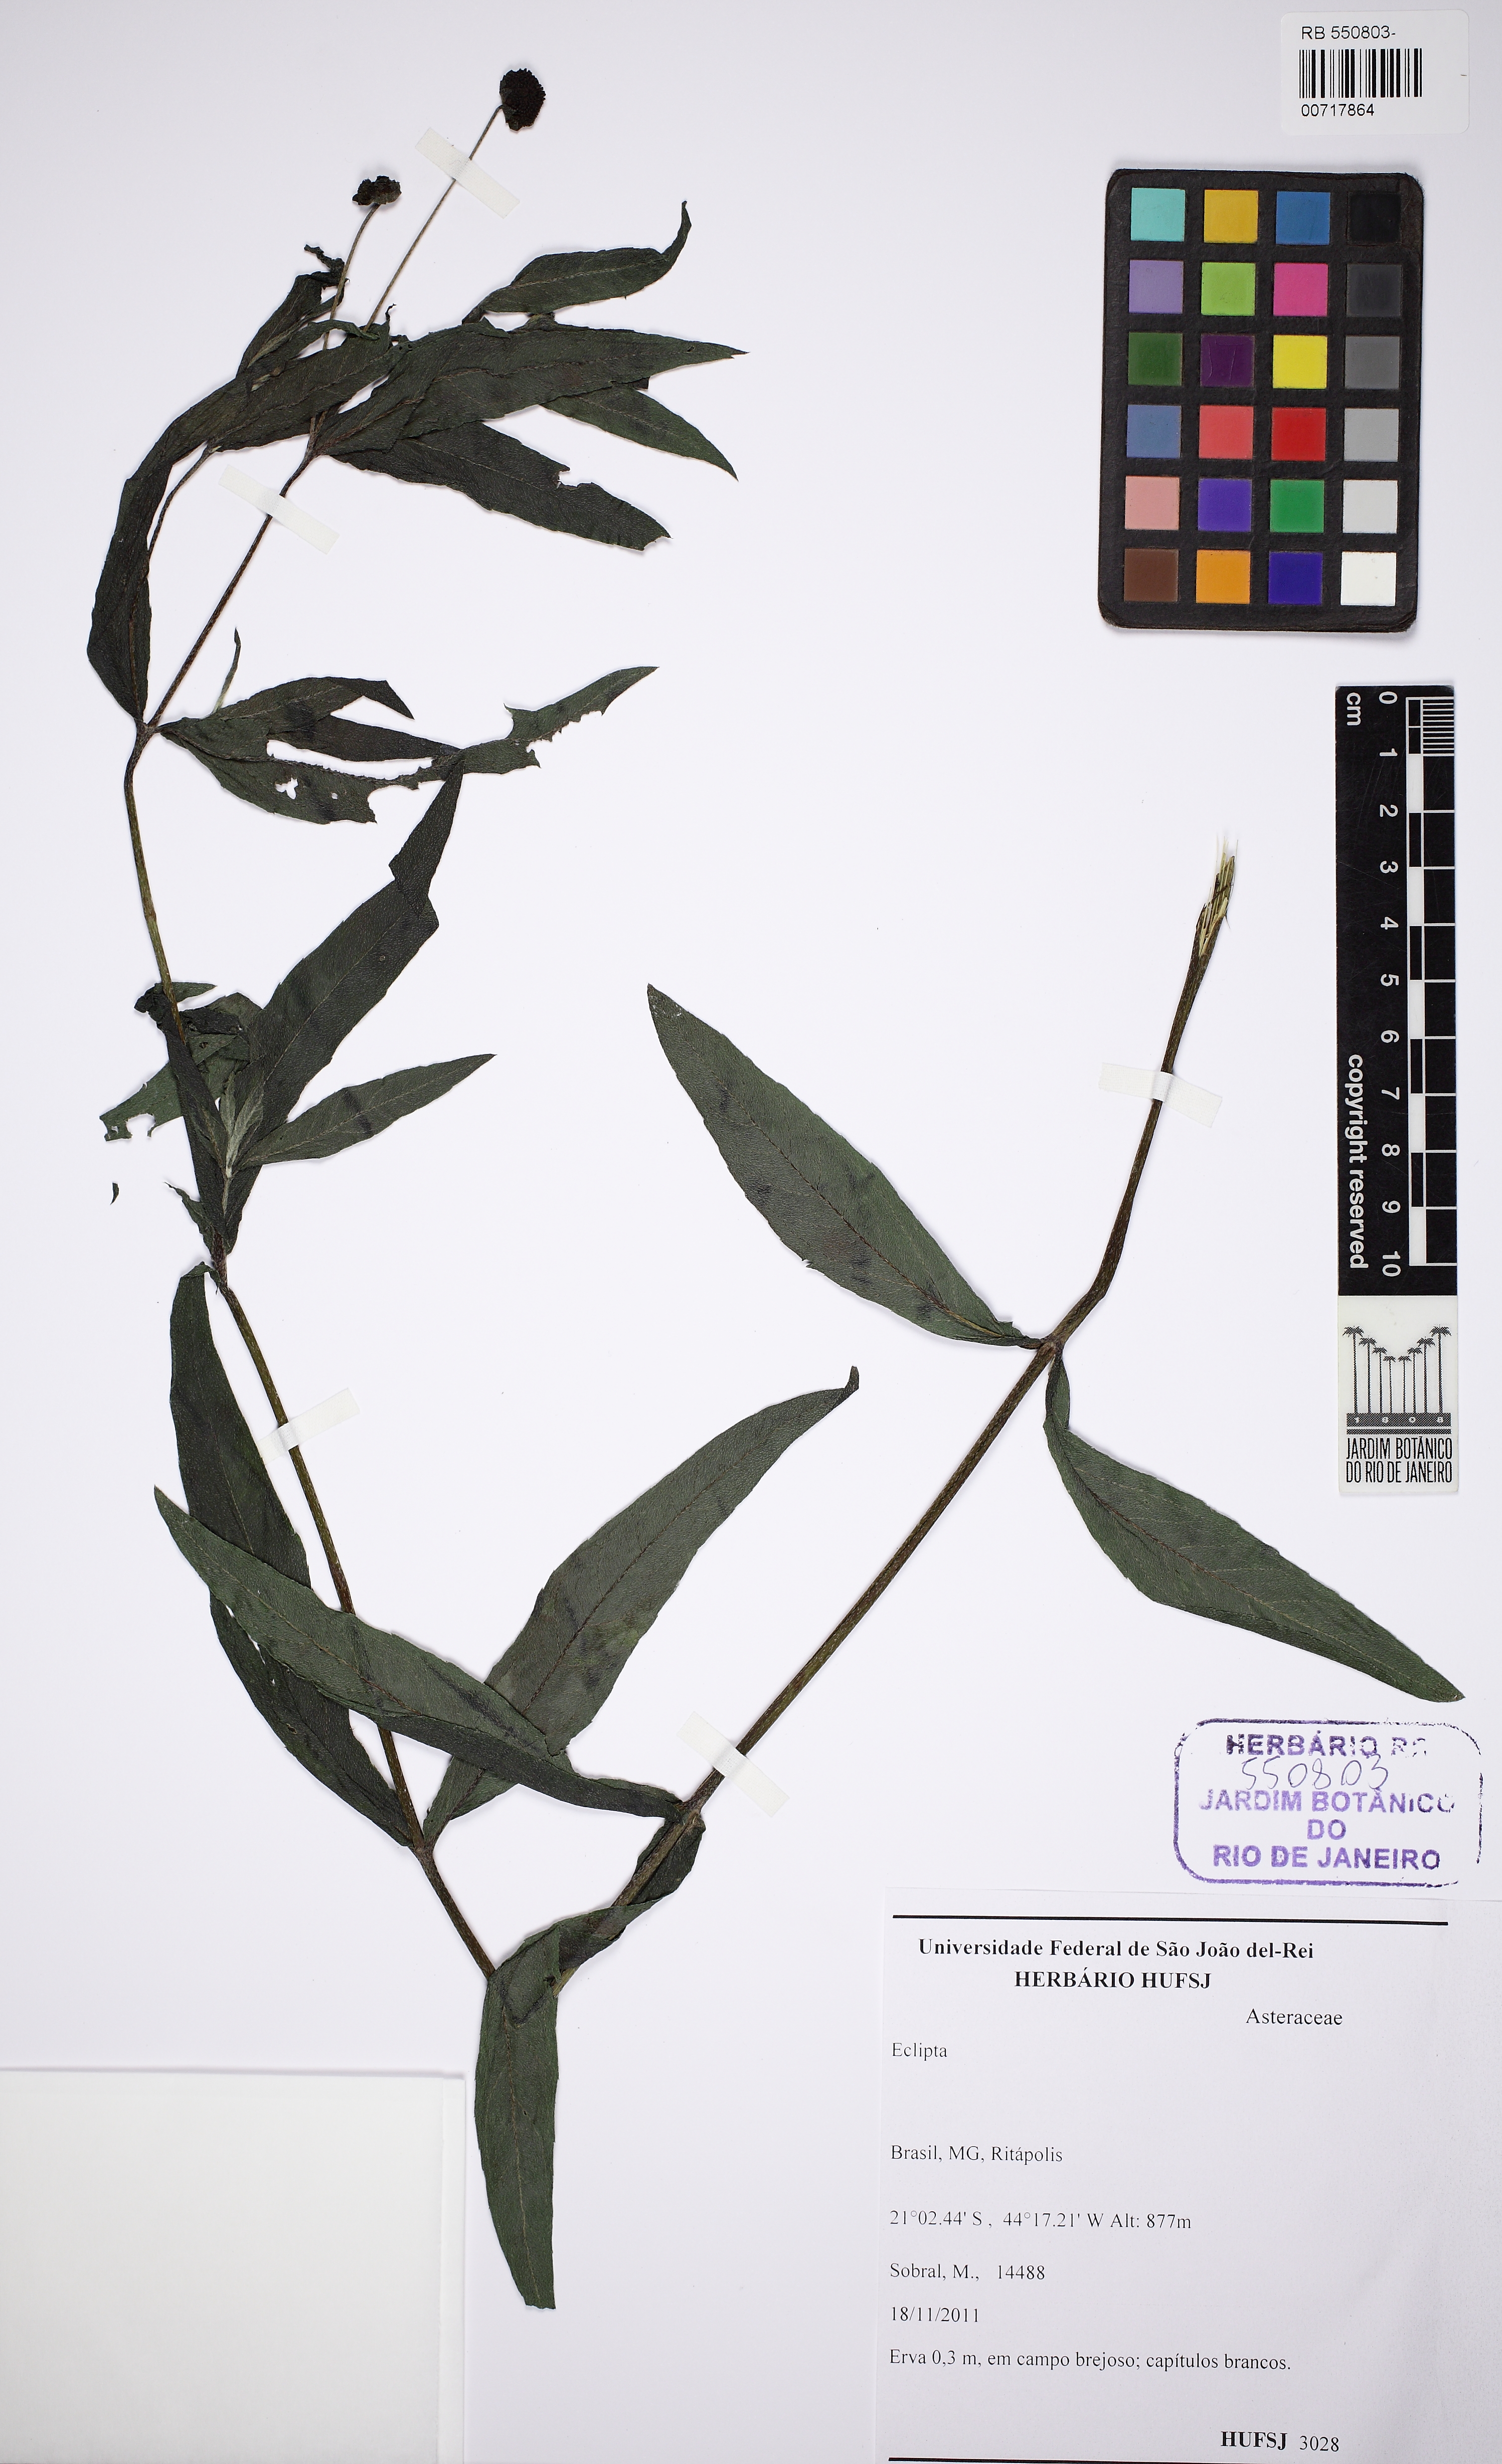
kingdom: Plantae
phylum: Tracheophyta
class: Magnoliopsida
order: Asterales
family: Asteraceae
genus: Eclipta
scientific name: Eclipta
